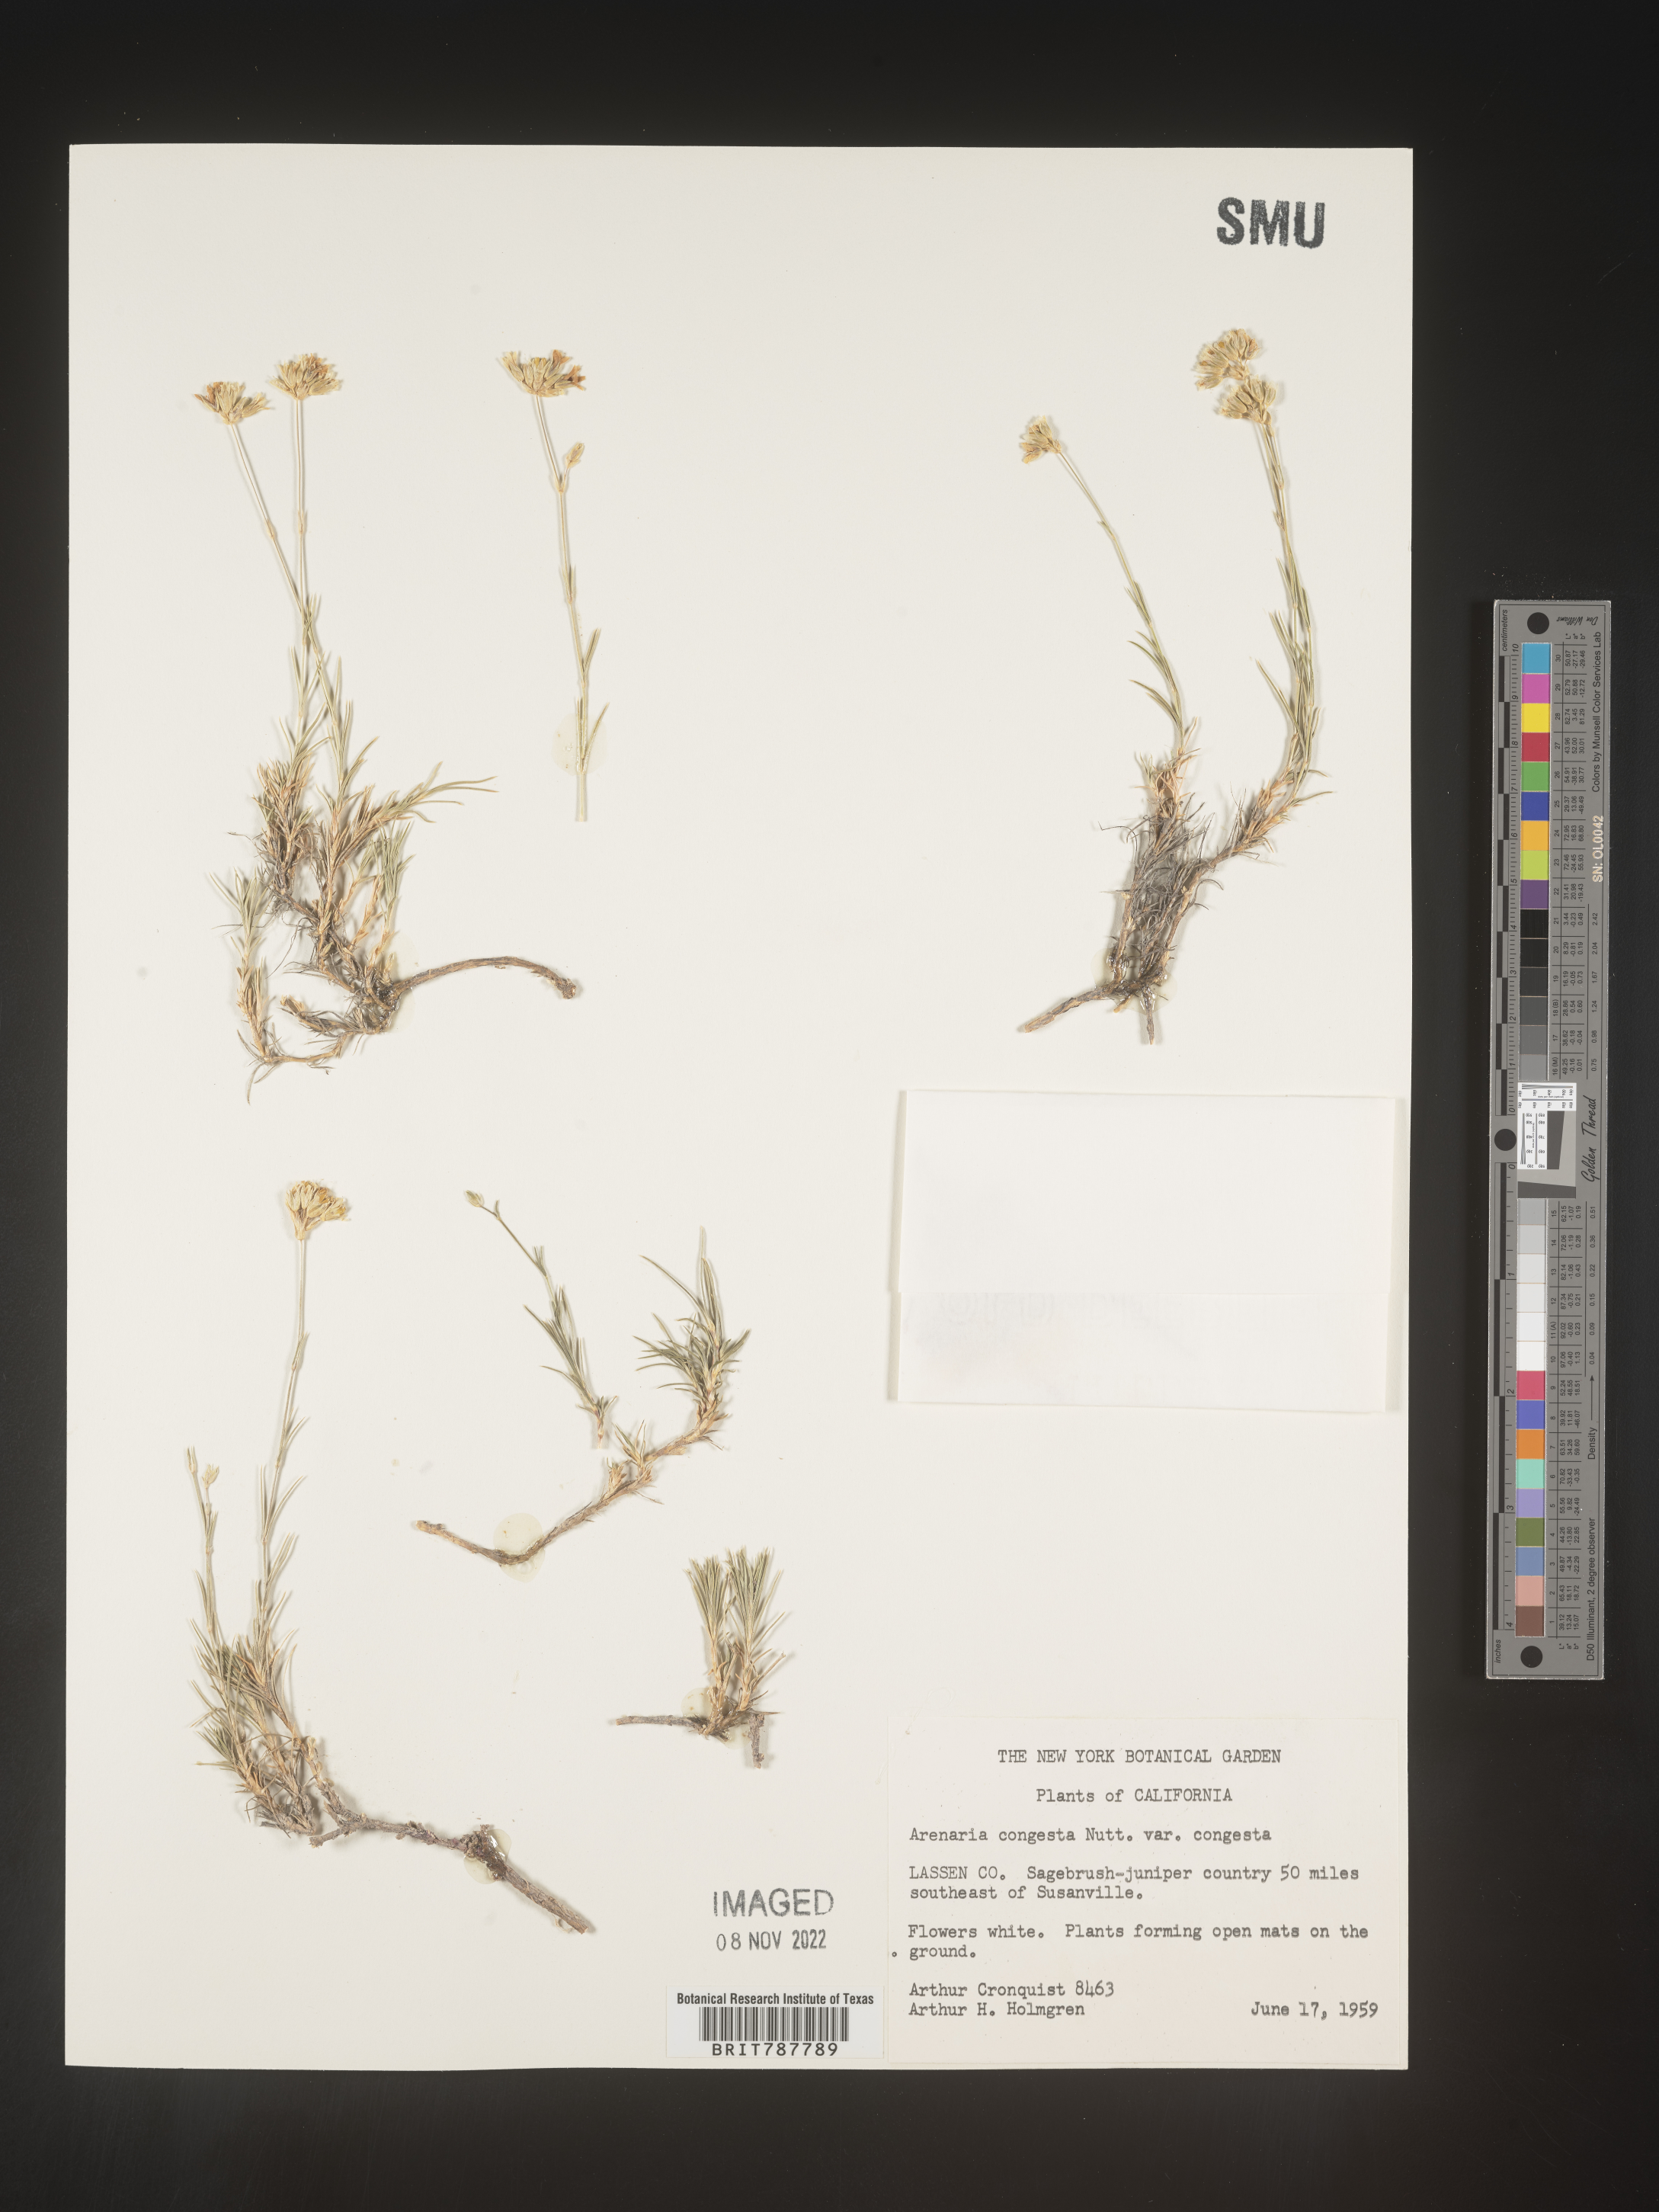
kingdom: Plantae
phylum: Tracheophyta
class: Magnoliopsida
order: Caryophyllales
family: Caryophyllaceae
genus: Eremogone
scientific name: Eremogone congesta
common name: Ballhead sandwort
